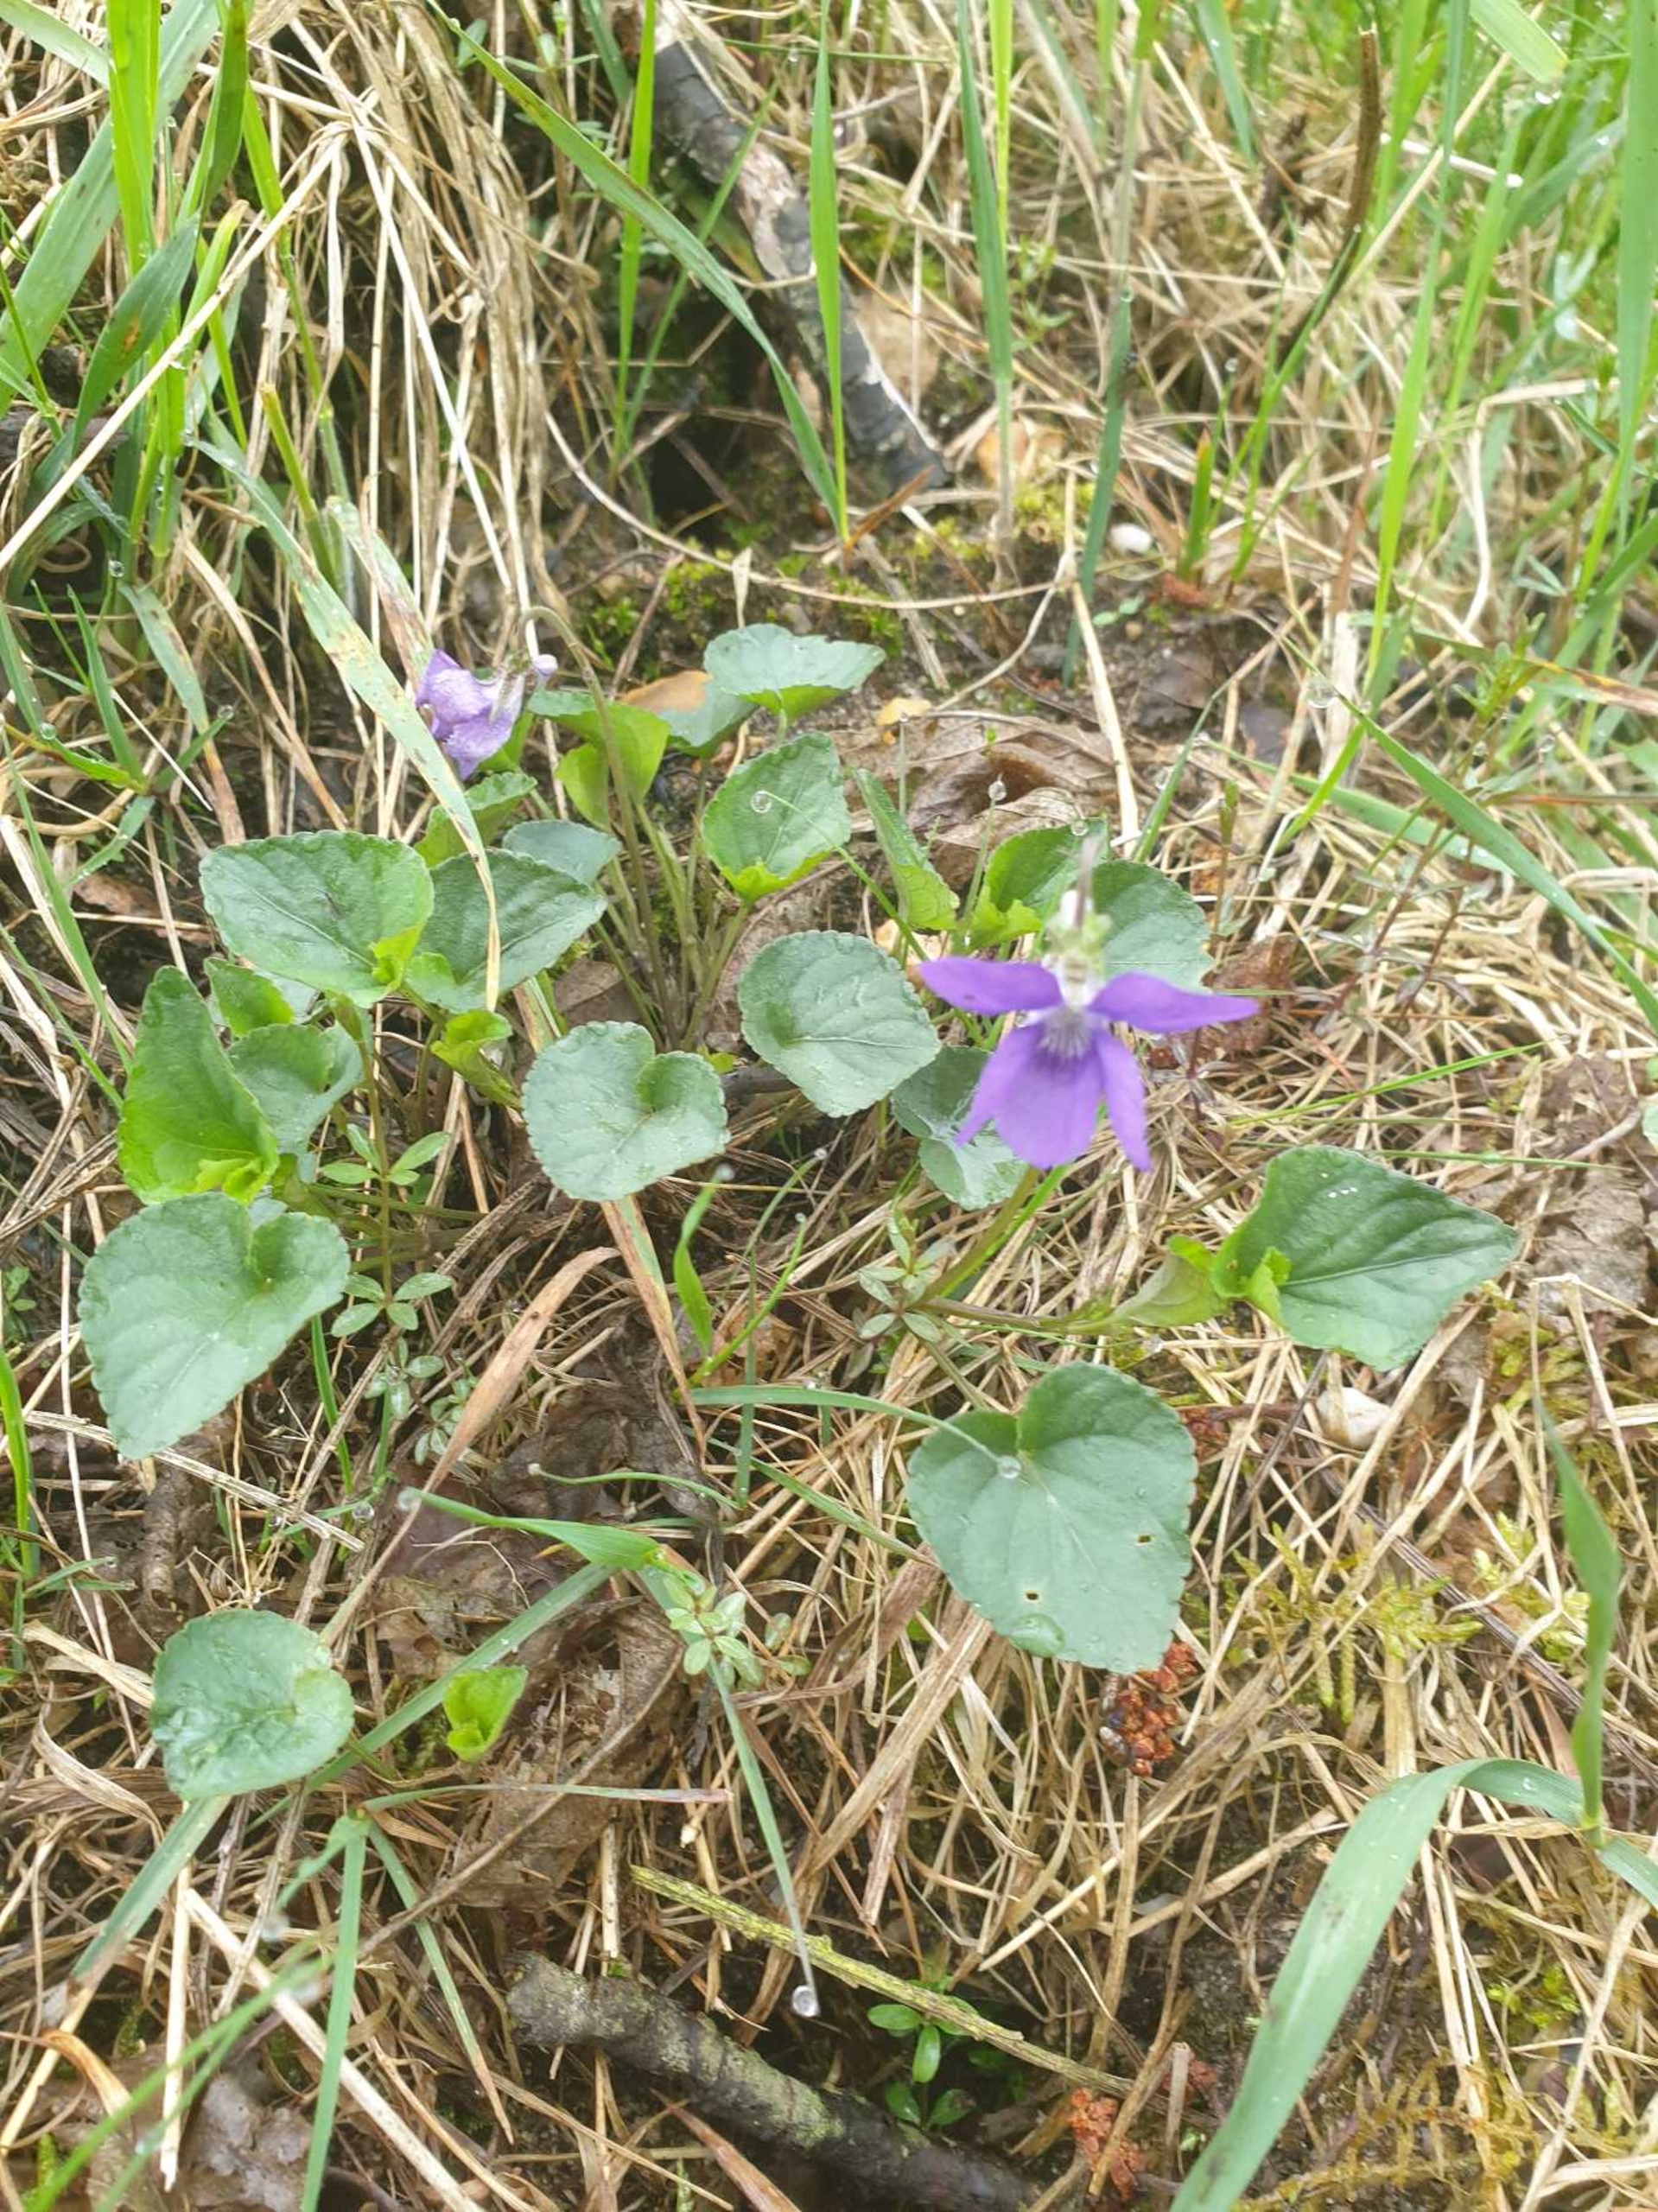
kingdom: Plantae
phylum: Tracheophyta
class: Magnoliopsida
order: Malpighiales
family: Violaceae
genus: Viola
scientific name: Viola reichenbachiana
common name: Skov-viol
